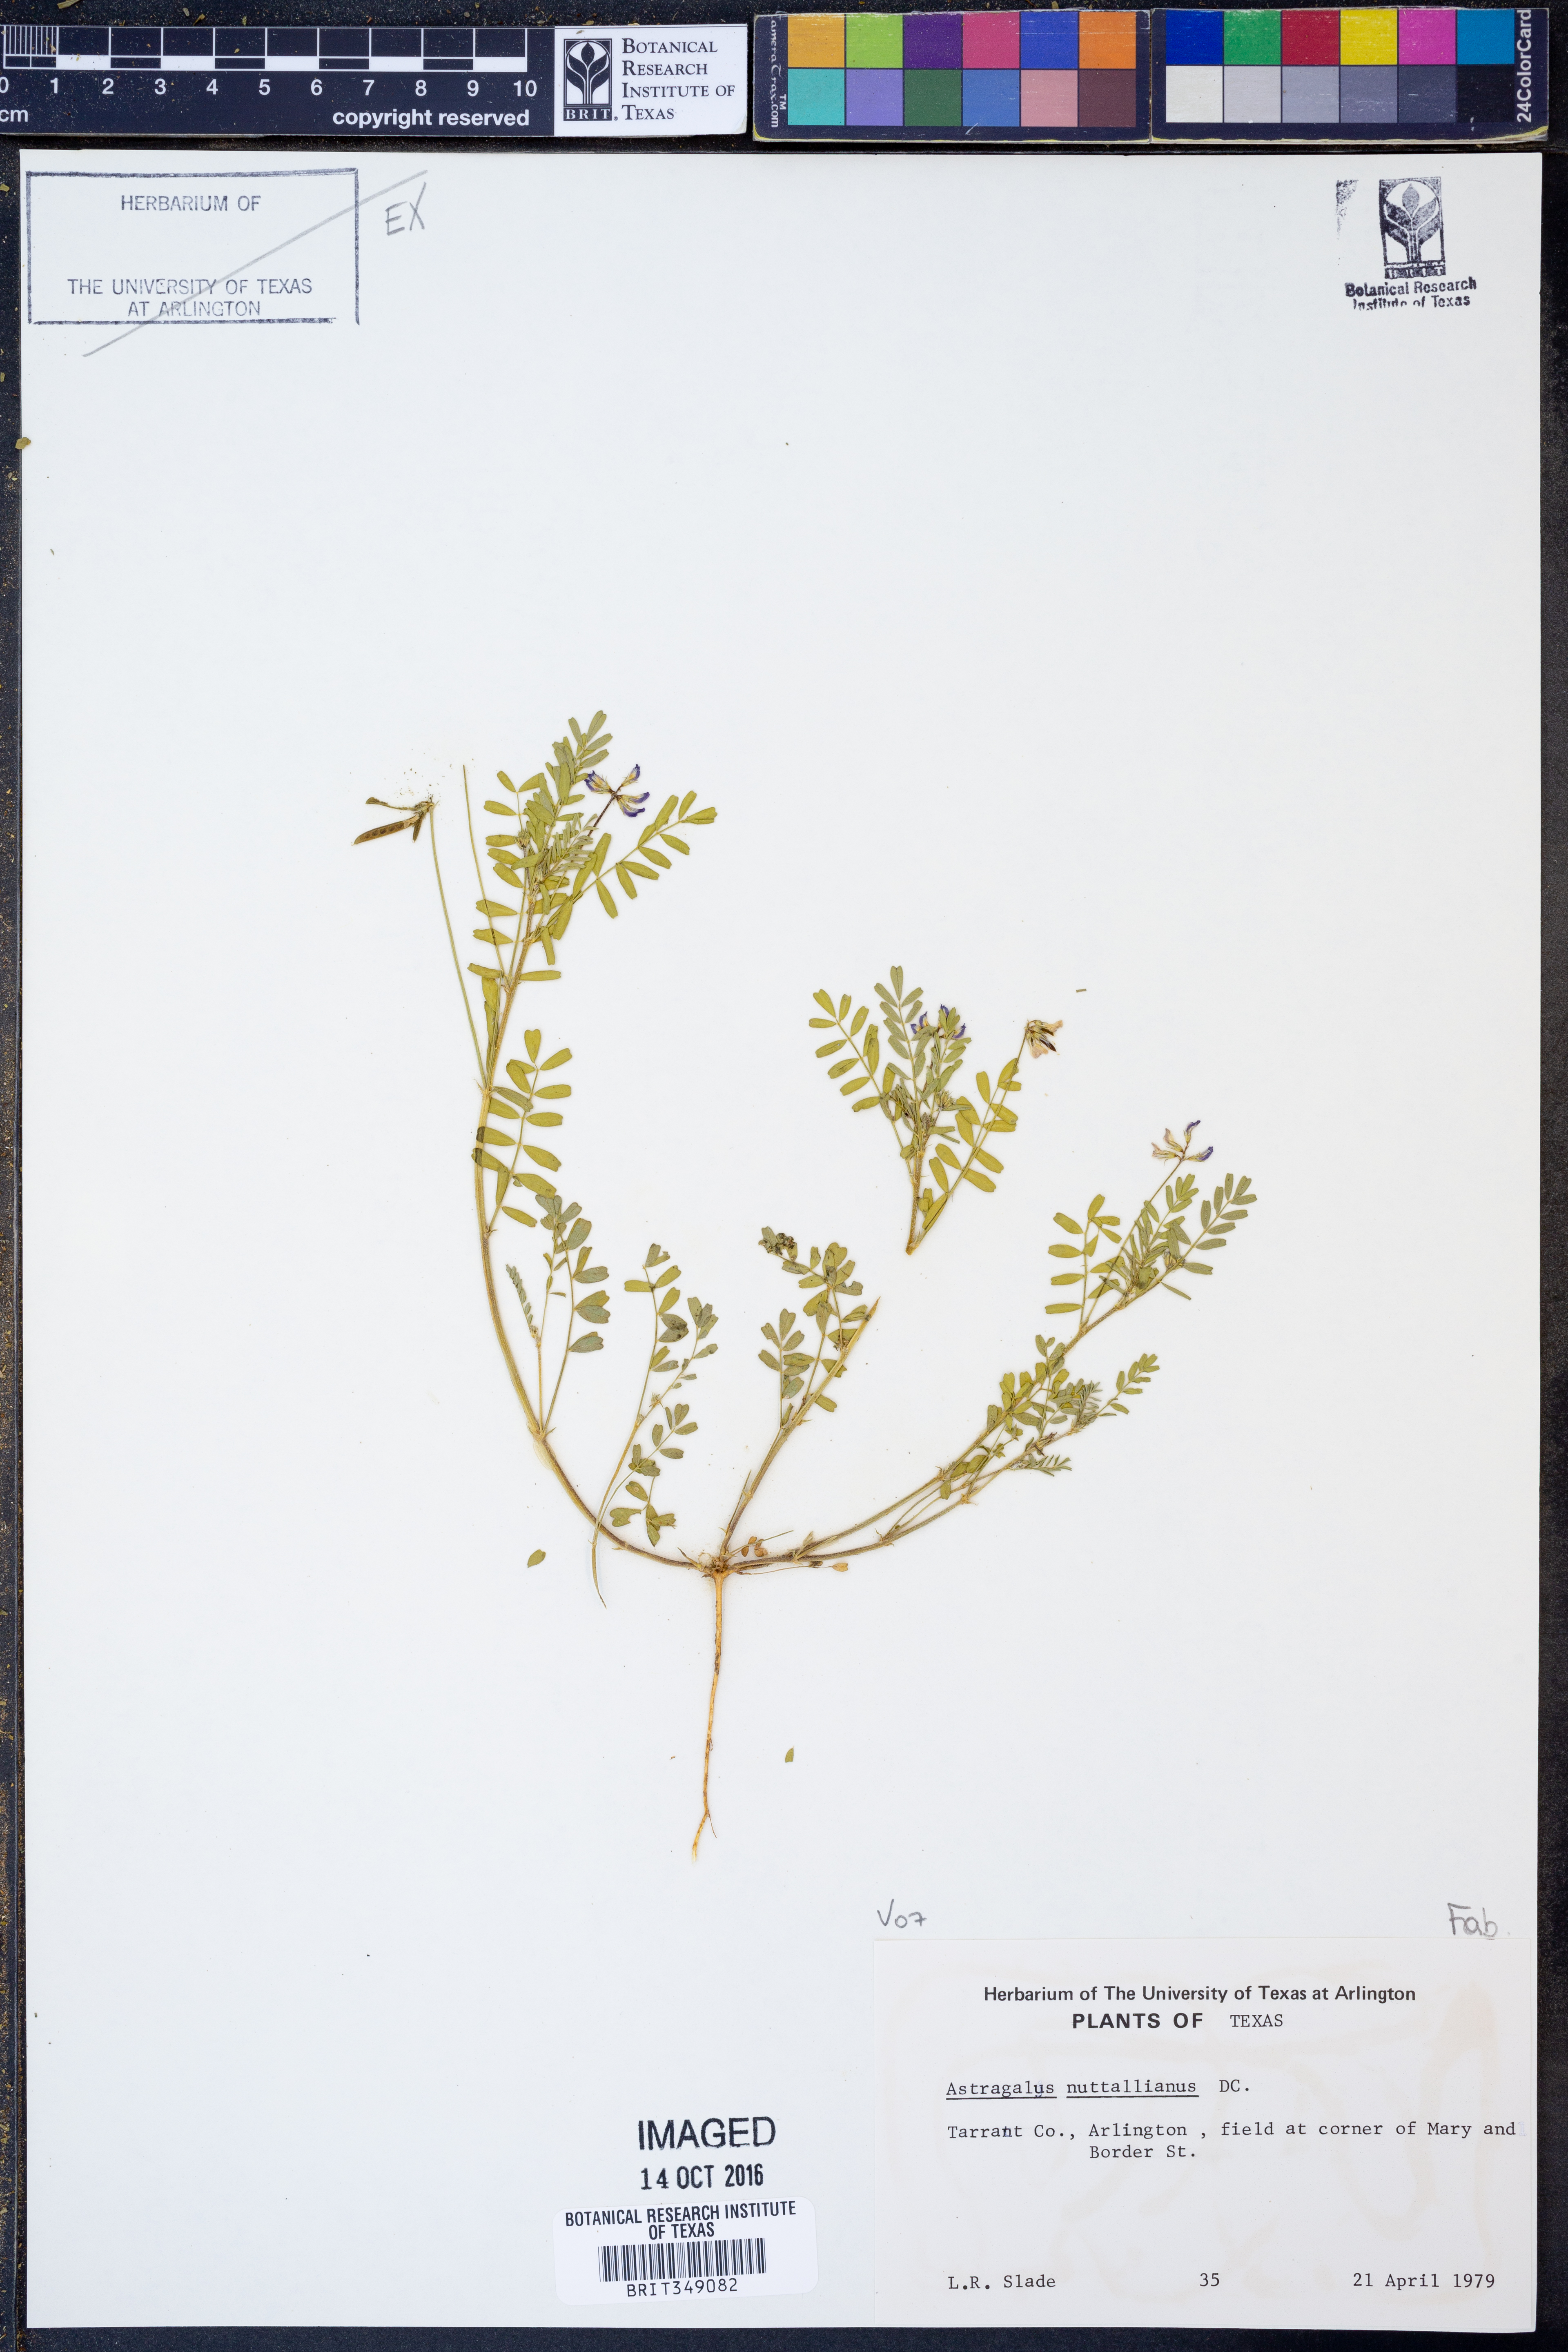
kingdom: Plantae
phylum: Tracheophyta
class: Magnoliopsida
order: Fabales
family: Fabaceae
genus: Astragalus
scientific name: Astragalus nuttallianus
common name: Smallflowered milkvetch
